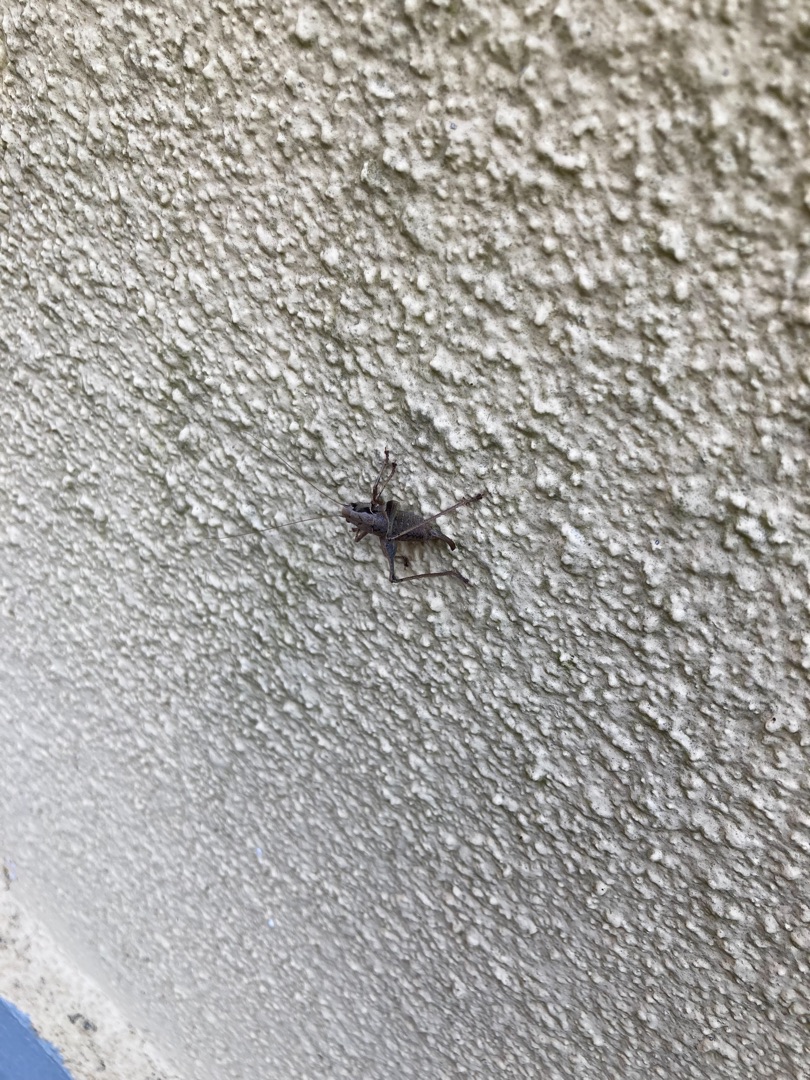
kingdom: Animalia
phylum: Arthropoda
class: Insecta
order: Orthoptera
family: Tettigoniidae
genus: Pholidoptera
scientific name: Pholidoptera griseoaptera
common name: Buskgræshoppe
